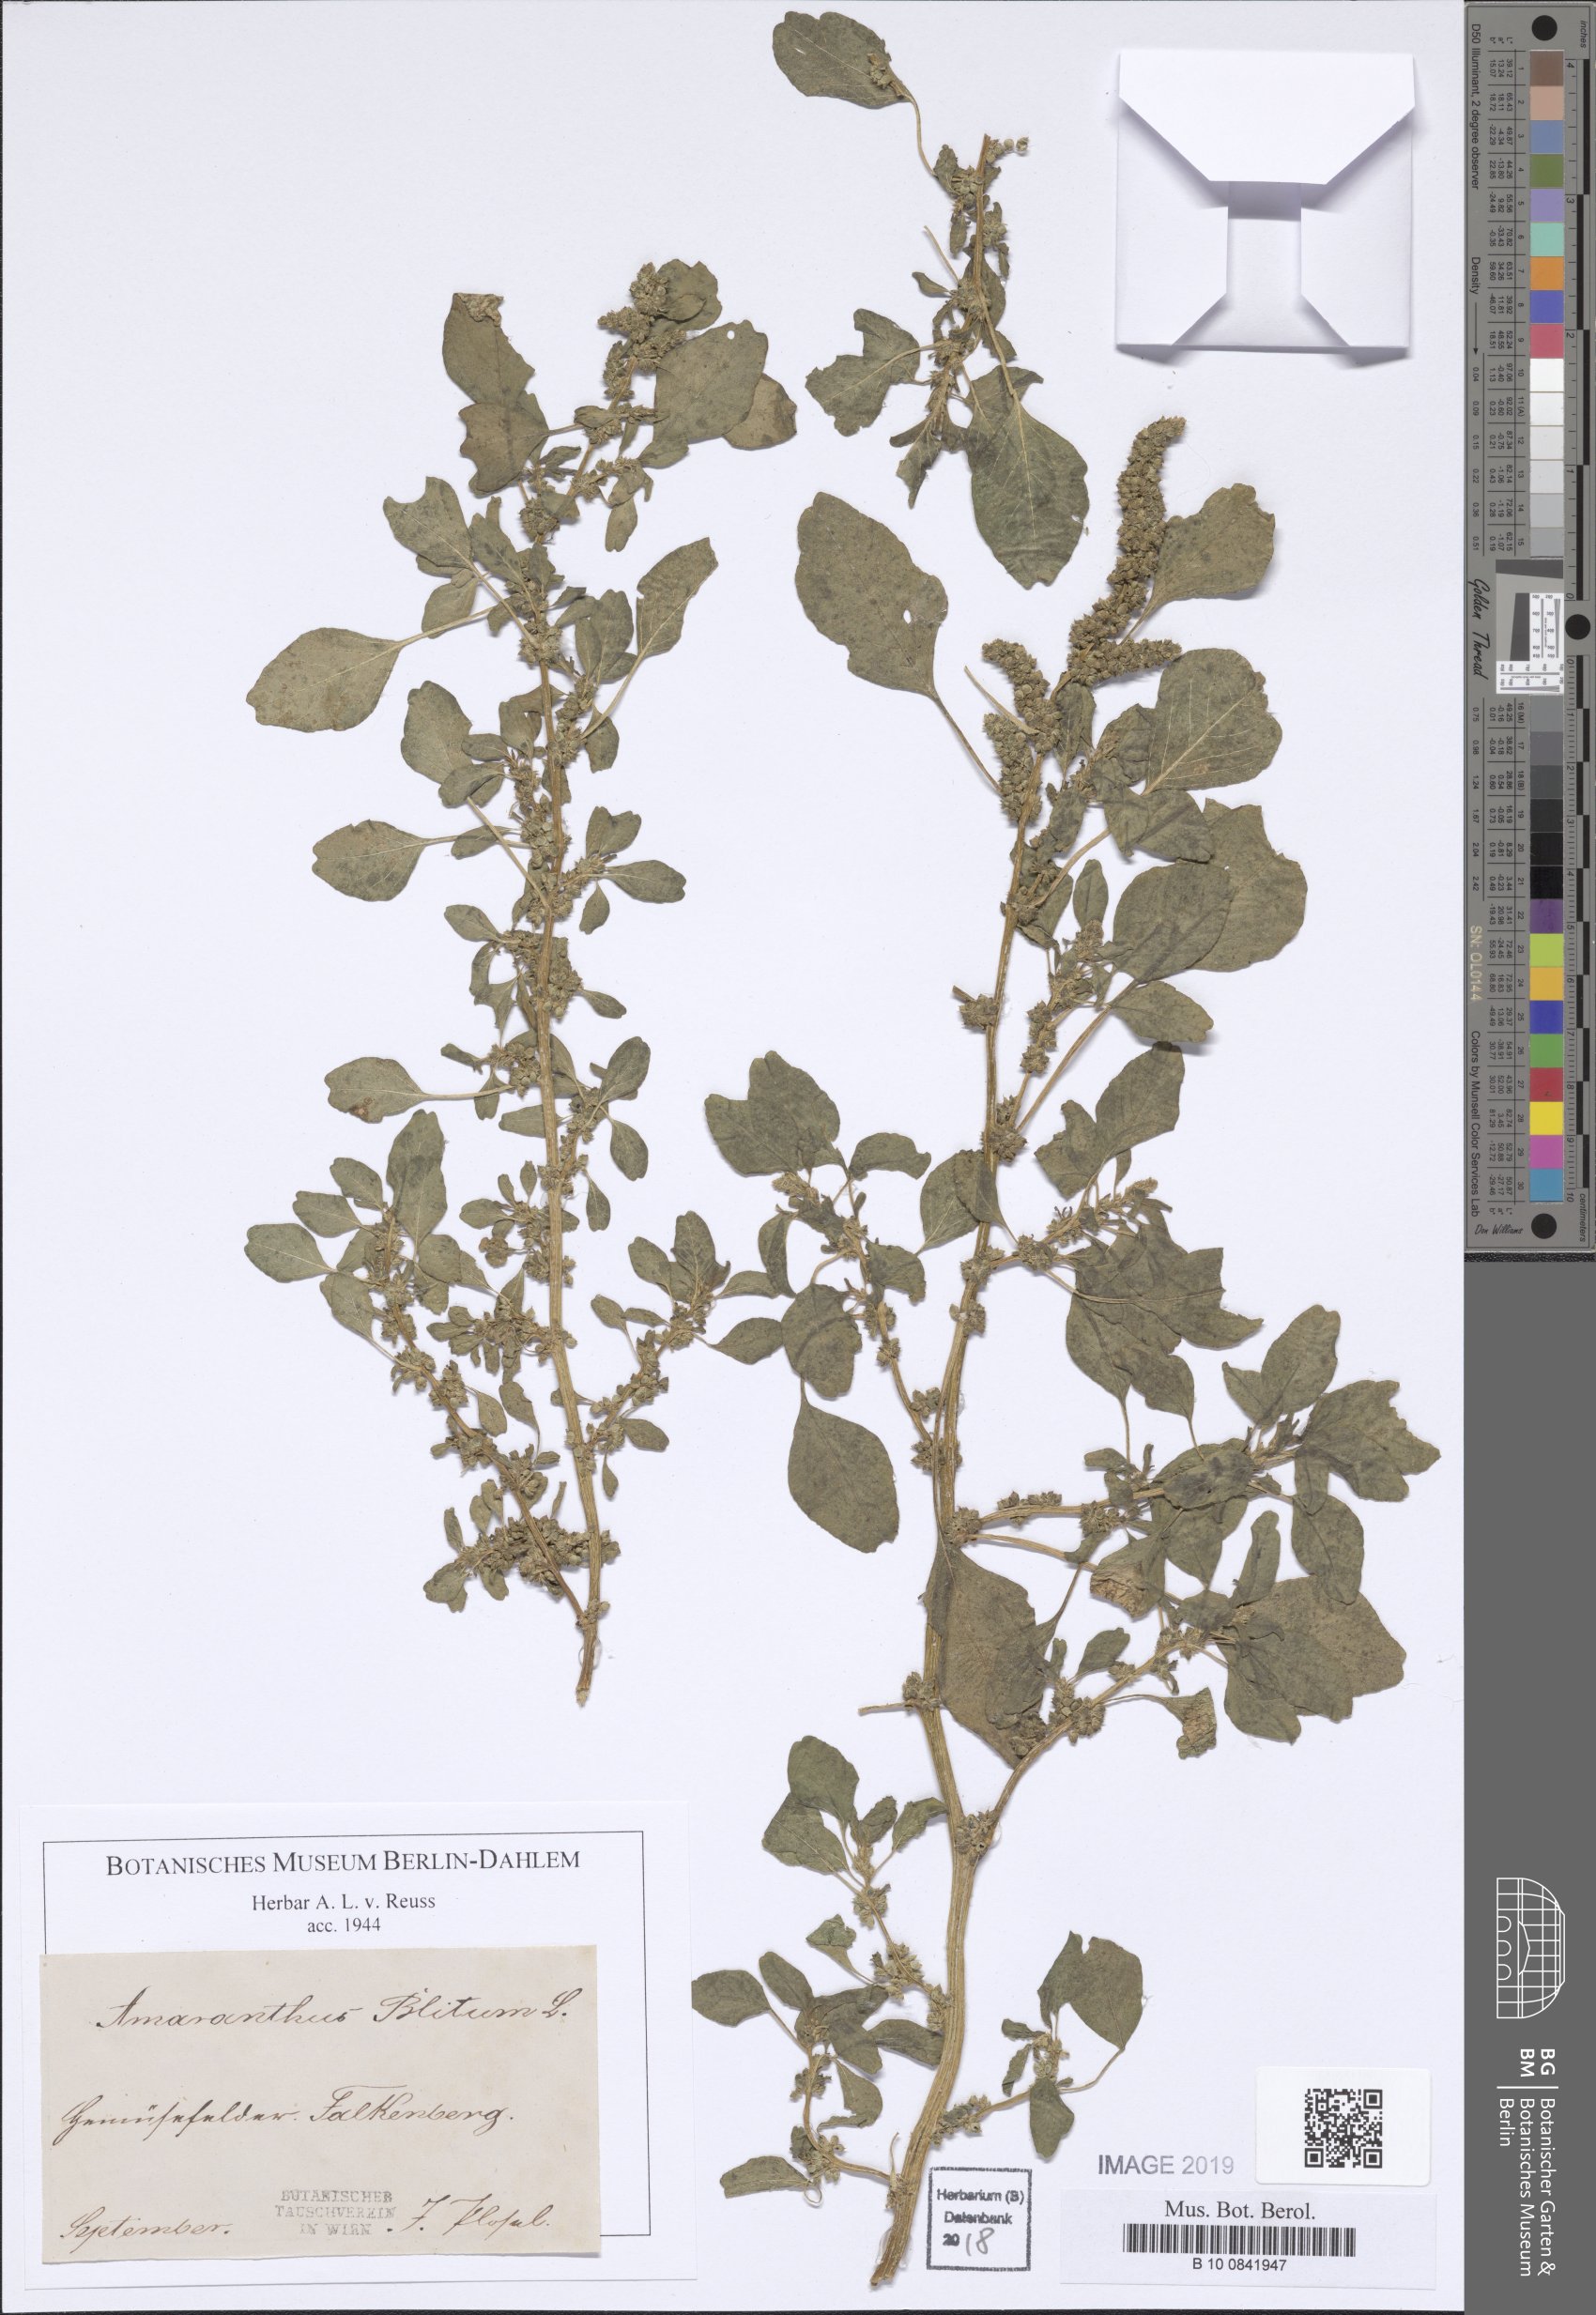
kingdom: Plantae
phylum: Tracheophyta
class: Magnoliopsida
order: Caryophyllales
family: Amaranthaceae
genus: Amaranthus
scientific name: Amaranthus blitum
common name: Purple amaranth
